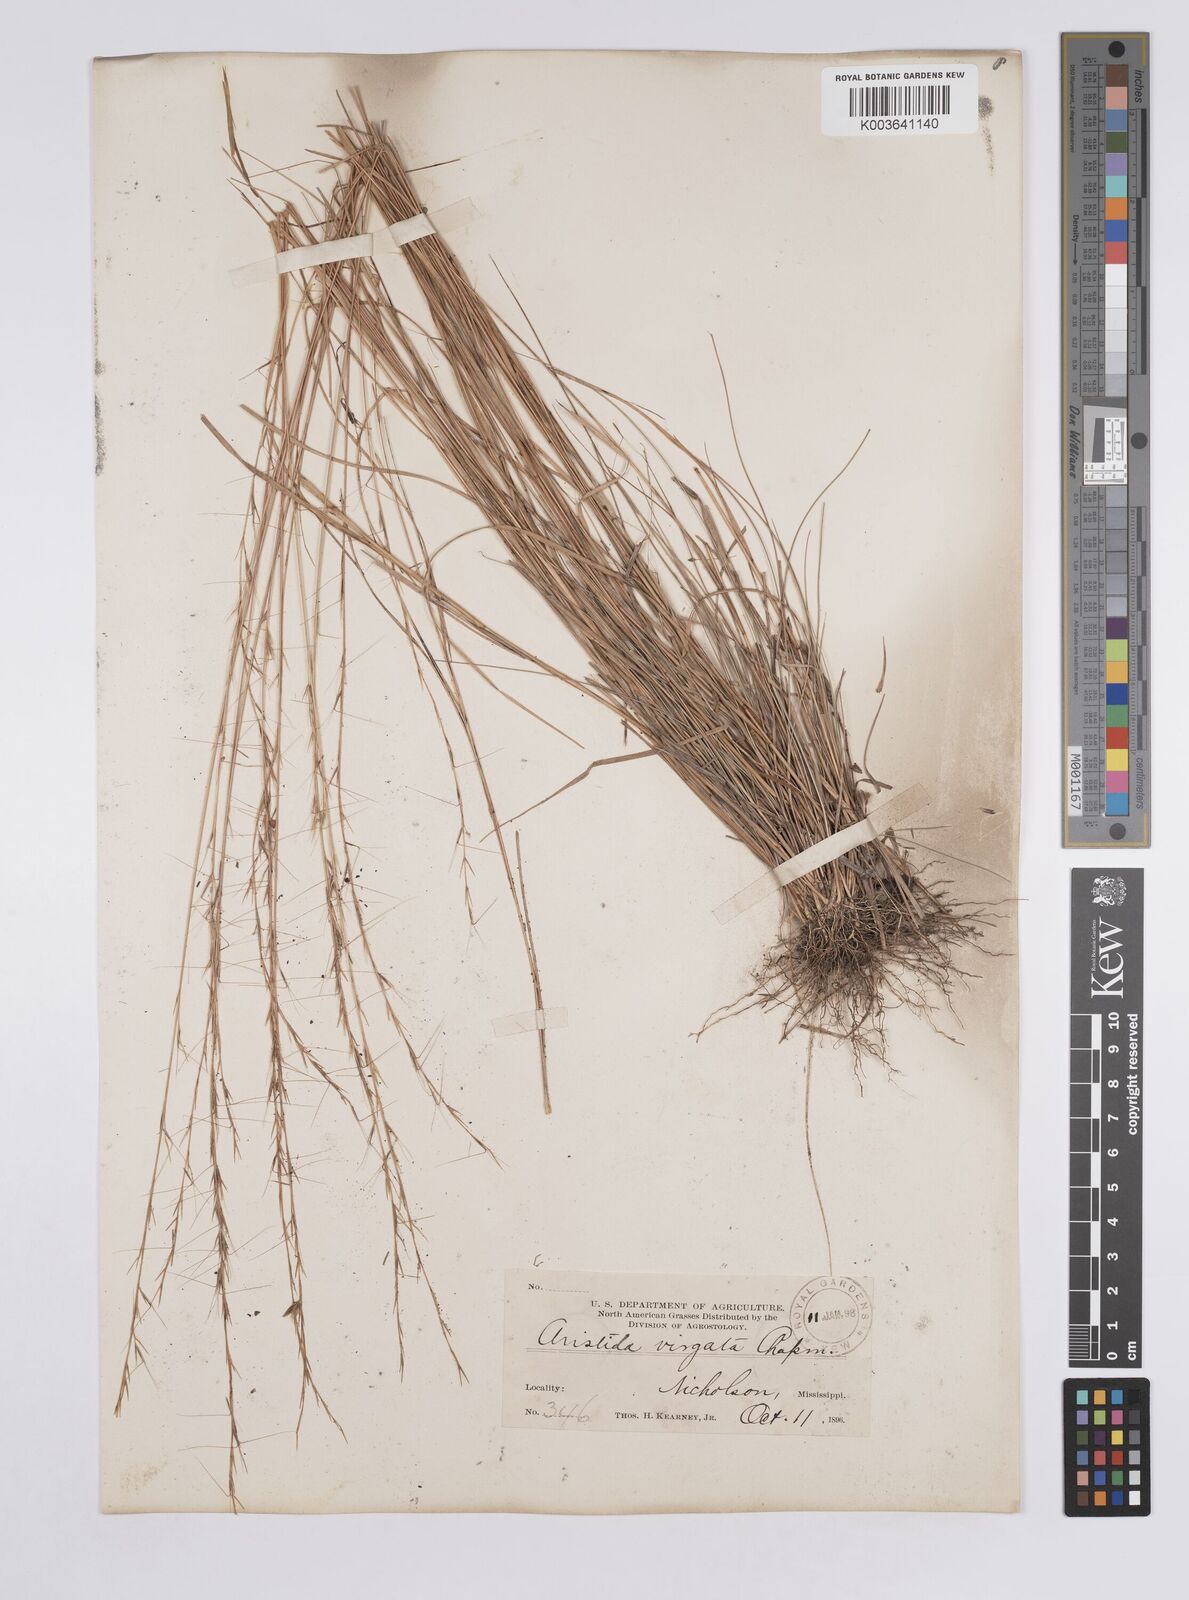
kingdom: Plantae
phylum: Tracheophyta
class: Liliopsida
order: Poales
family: Poaceae
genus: Aristida
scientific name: Aristida palustris
